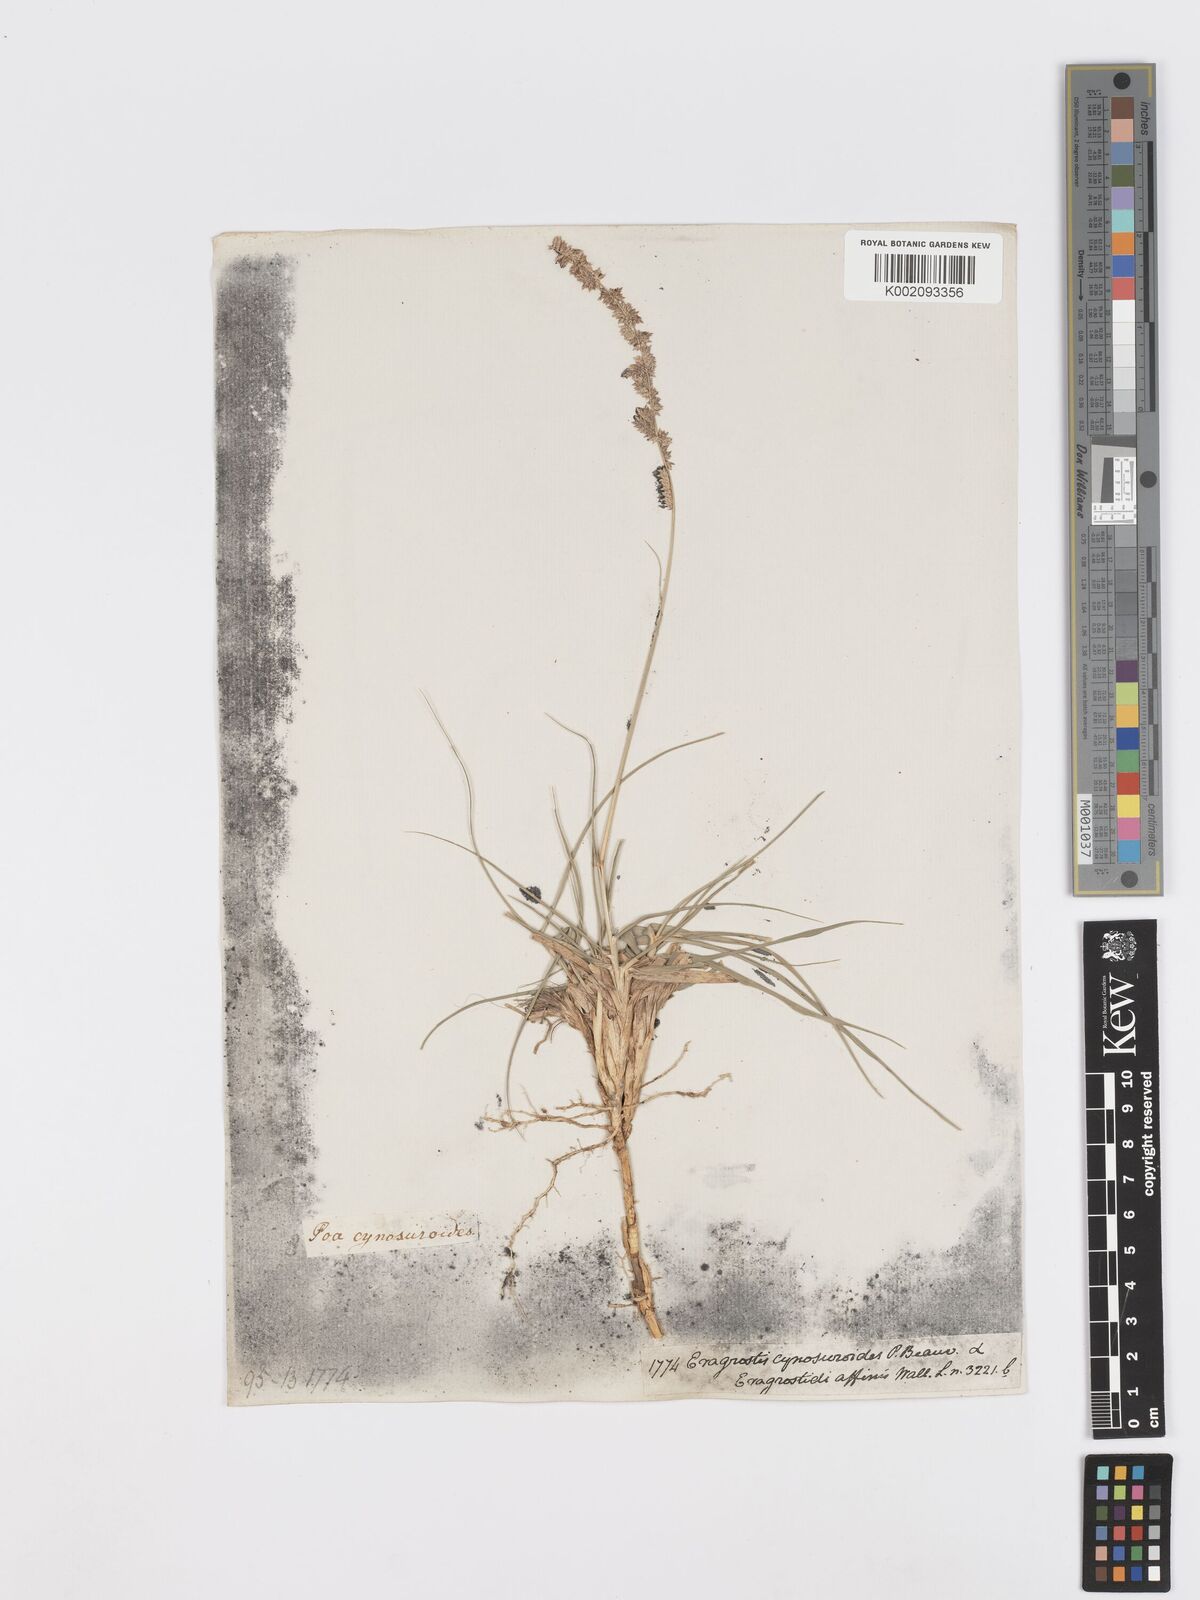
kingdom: Plantae
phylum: Tracheophyta
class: Liliopsida
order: Poales
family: Poaceae
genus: Desmostachya
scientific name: Desmostachya bipinnata
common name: Crowfoot grass
